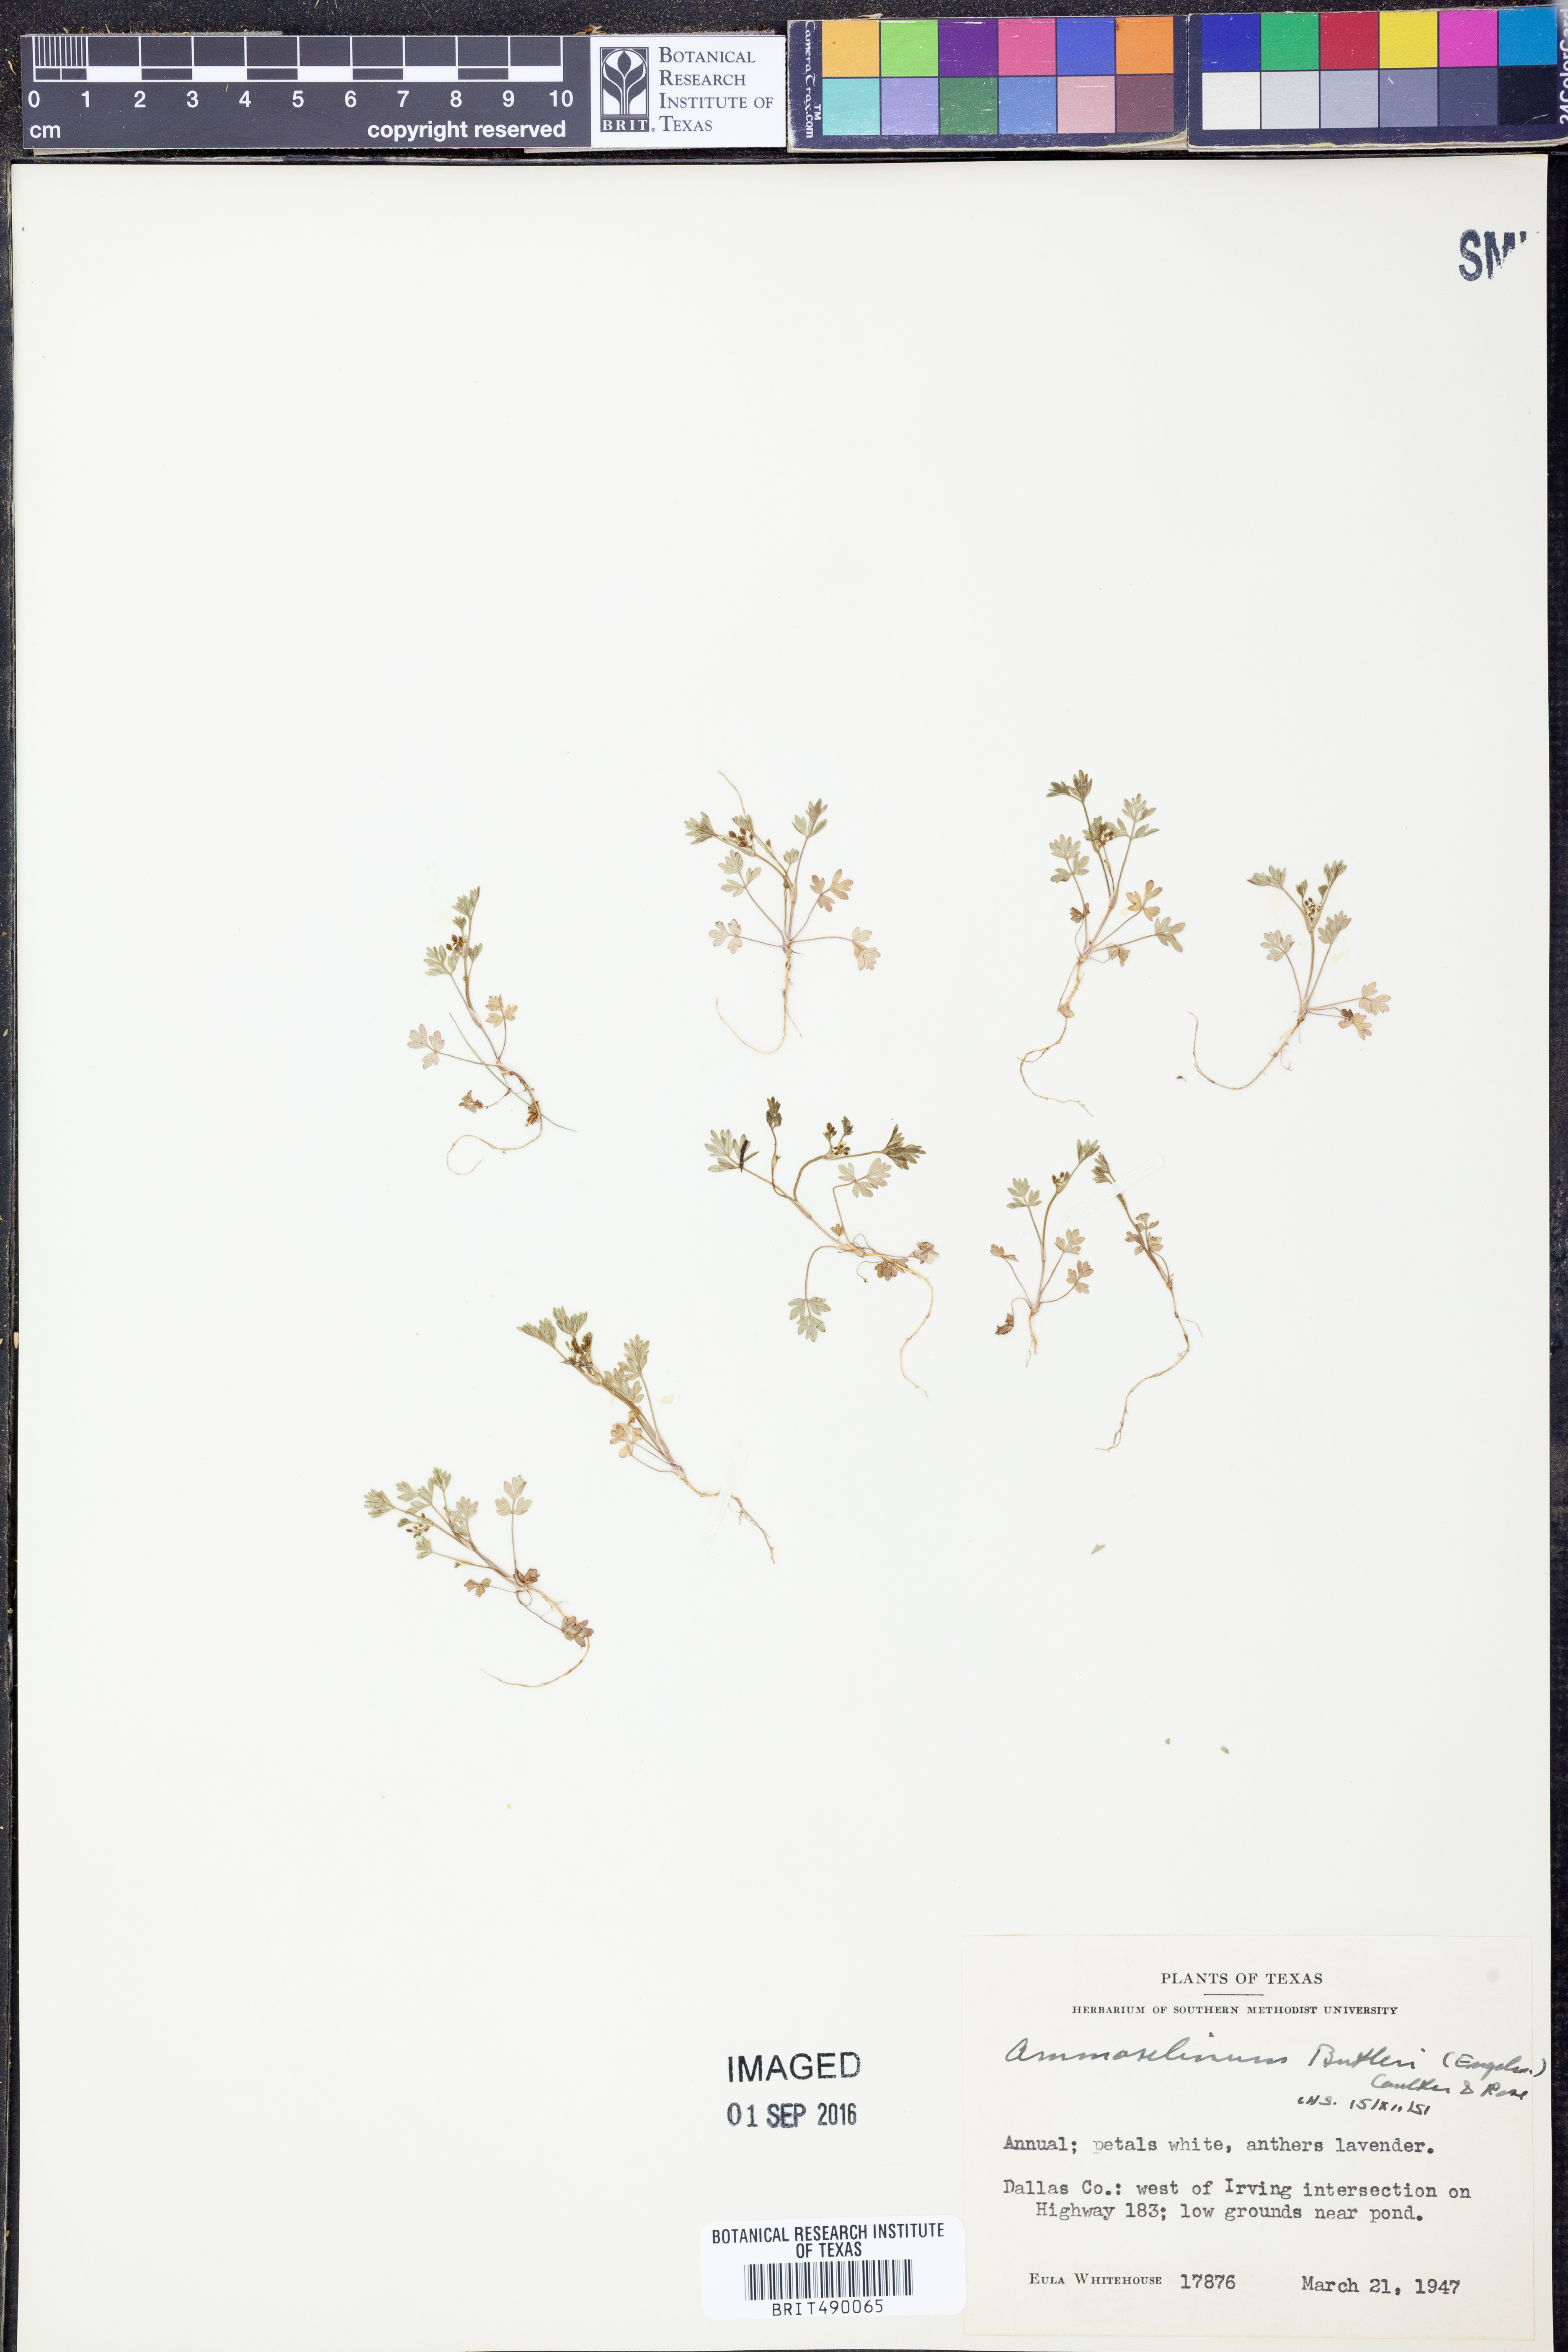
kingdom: Plantae
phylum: Tracheophyta
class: Magnoliopsida
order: Apiales
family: Apiaceae
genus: Ammoselinum
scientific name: Ammoselinum butleri
